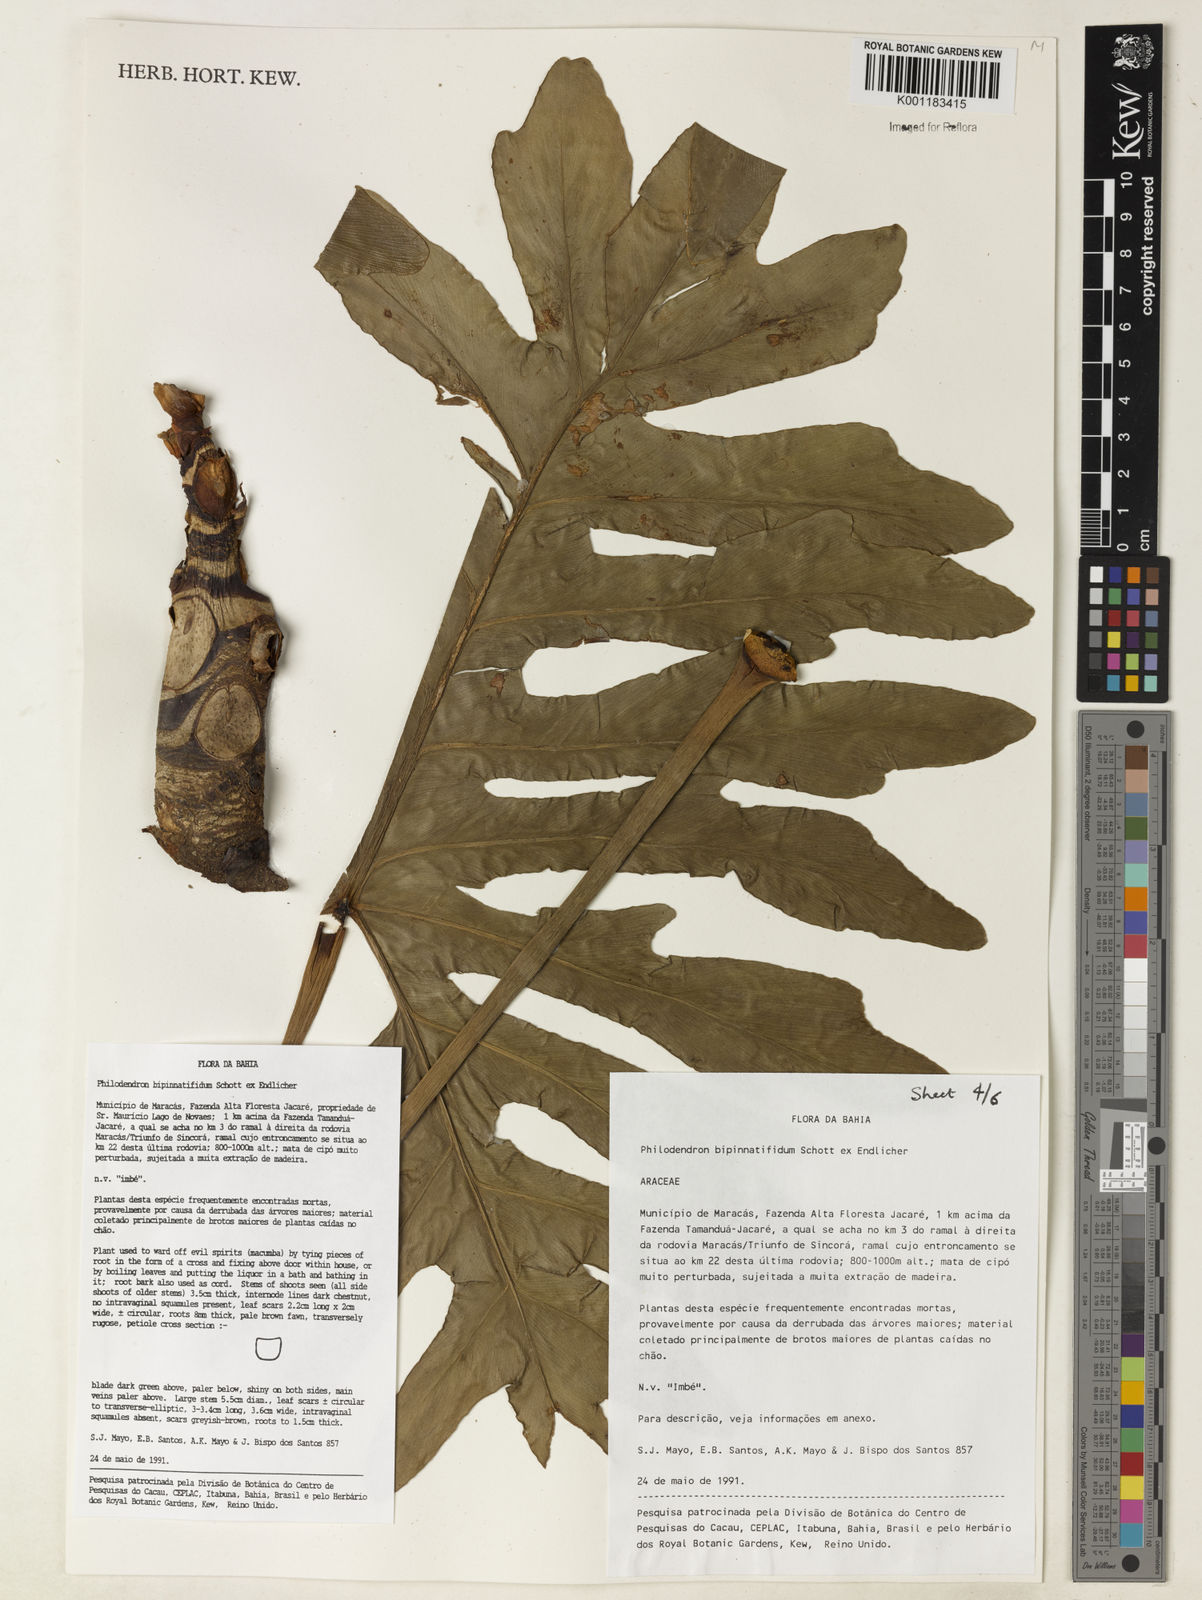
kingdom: Plantae
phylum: Tracheophyta
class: Liliopsida
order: Alismatales
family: Araceae
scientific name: Araceae
